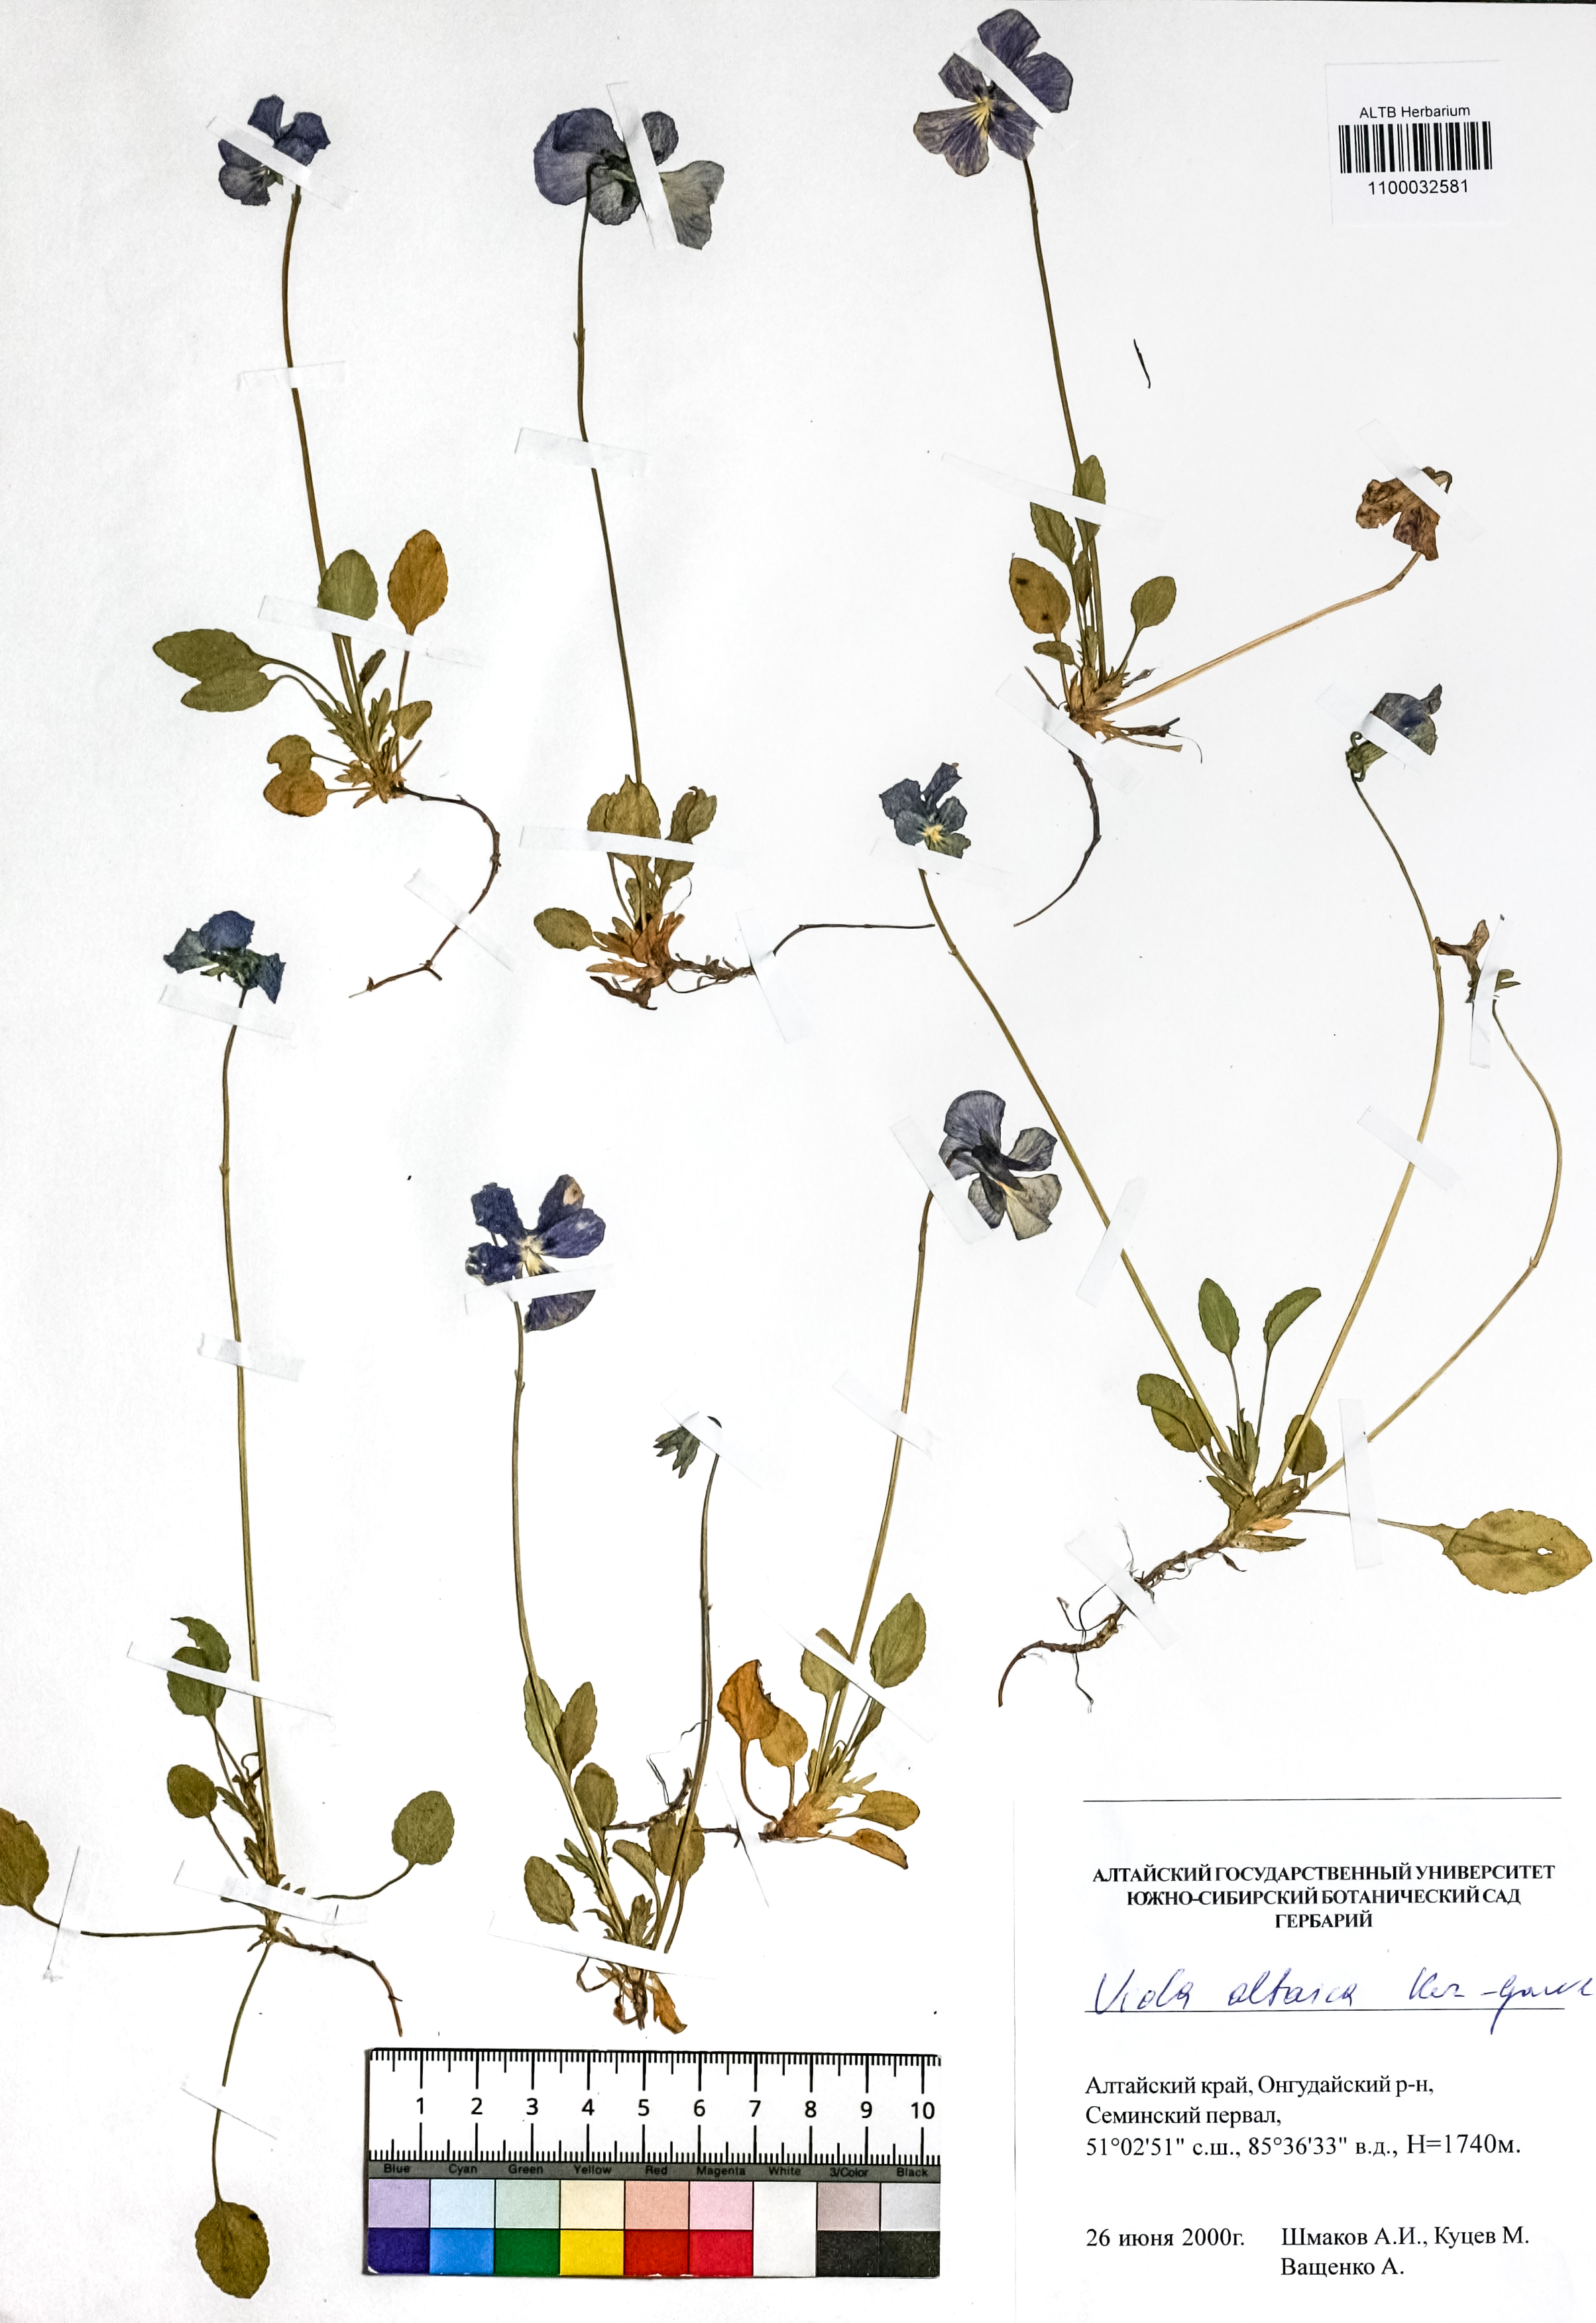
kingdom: Plantae
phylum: Tracheophyta
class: Magnoliopsida
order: Malpighiales
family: Violaceae
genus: Viola
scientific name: Viola altaica
